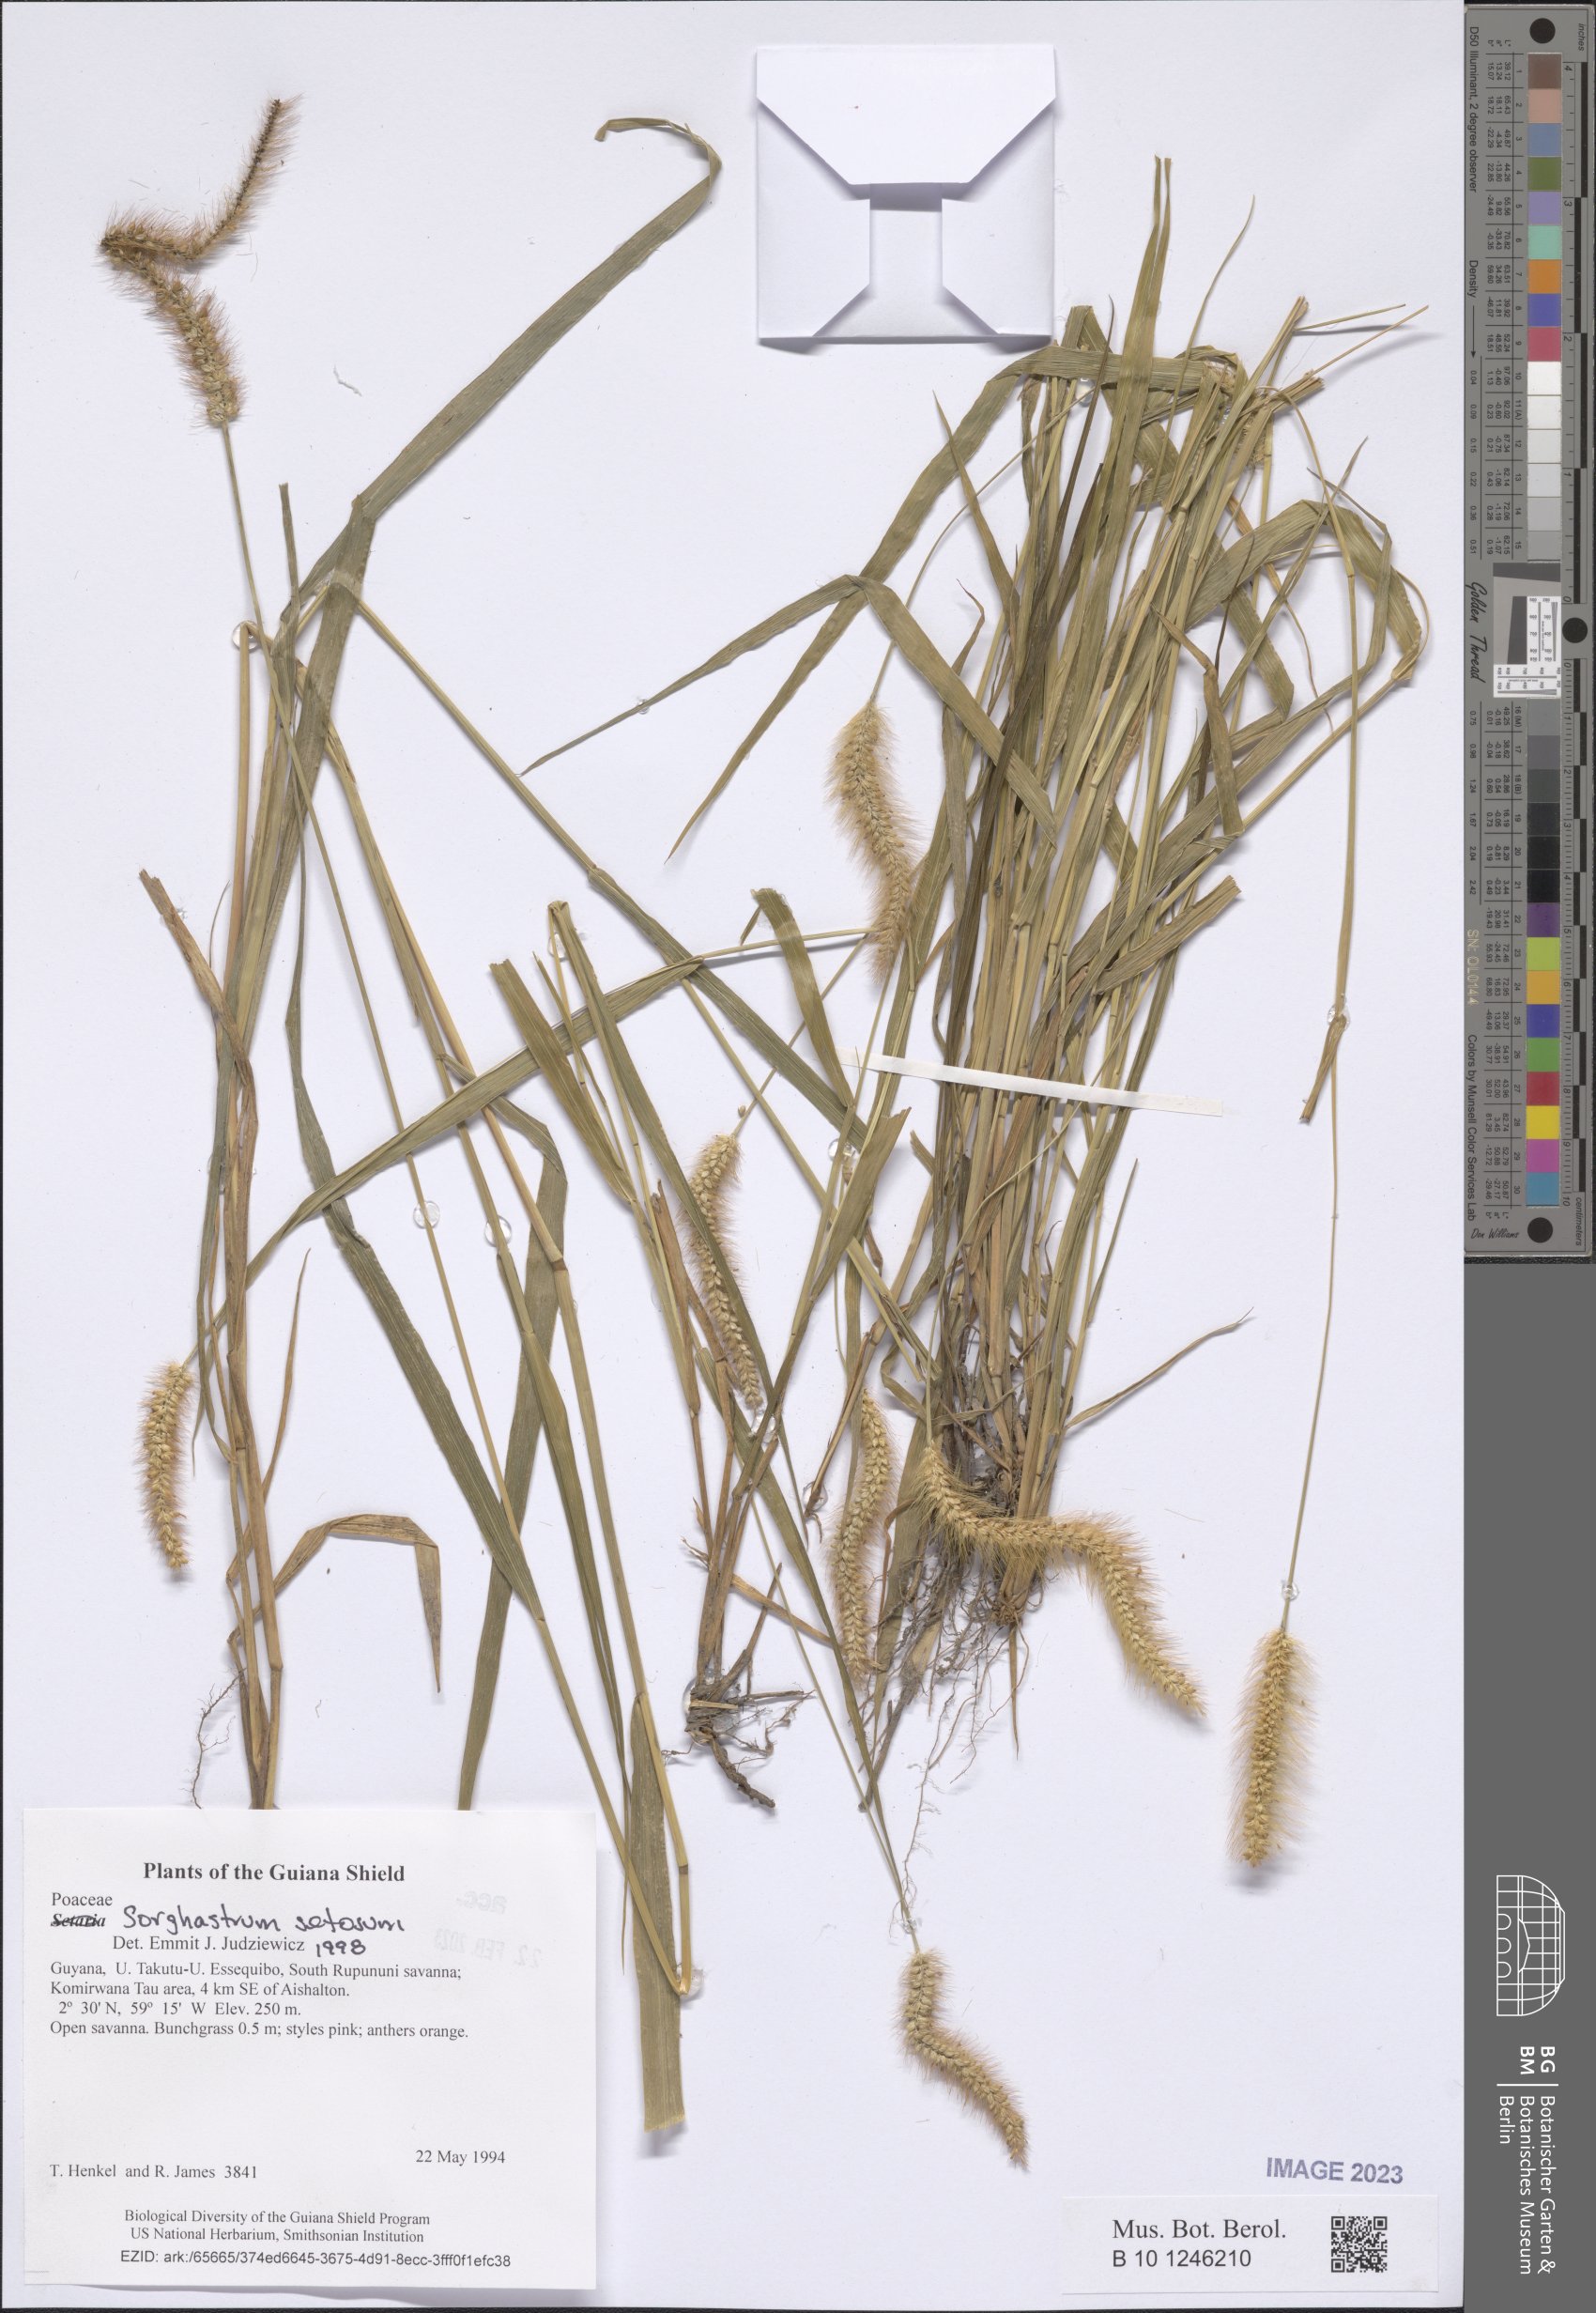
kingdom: Plantae
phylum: Tracheophyta
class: Liliopsida
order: Poales
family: Poaceae
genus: Sorghastrum
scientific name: Sorghastrum setosum
